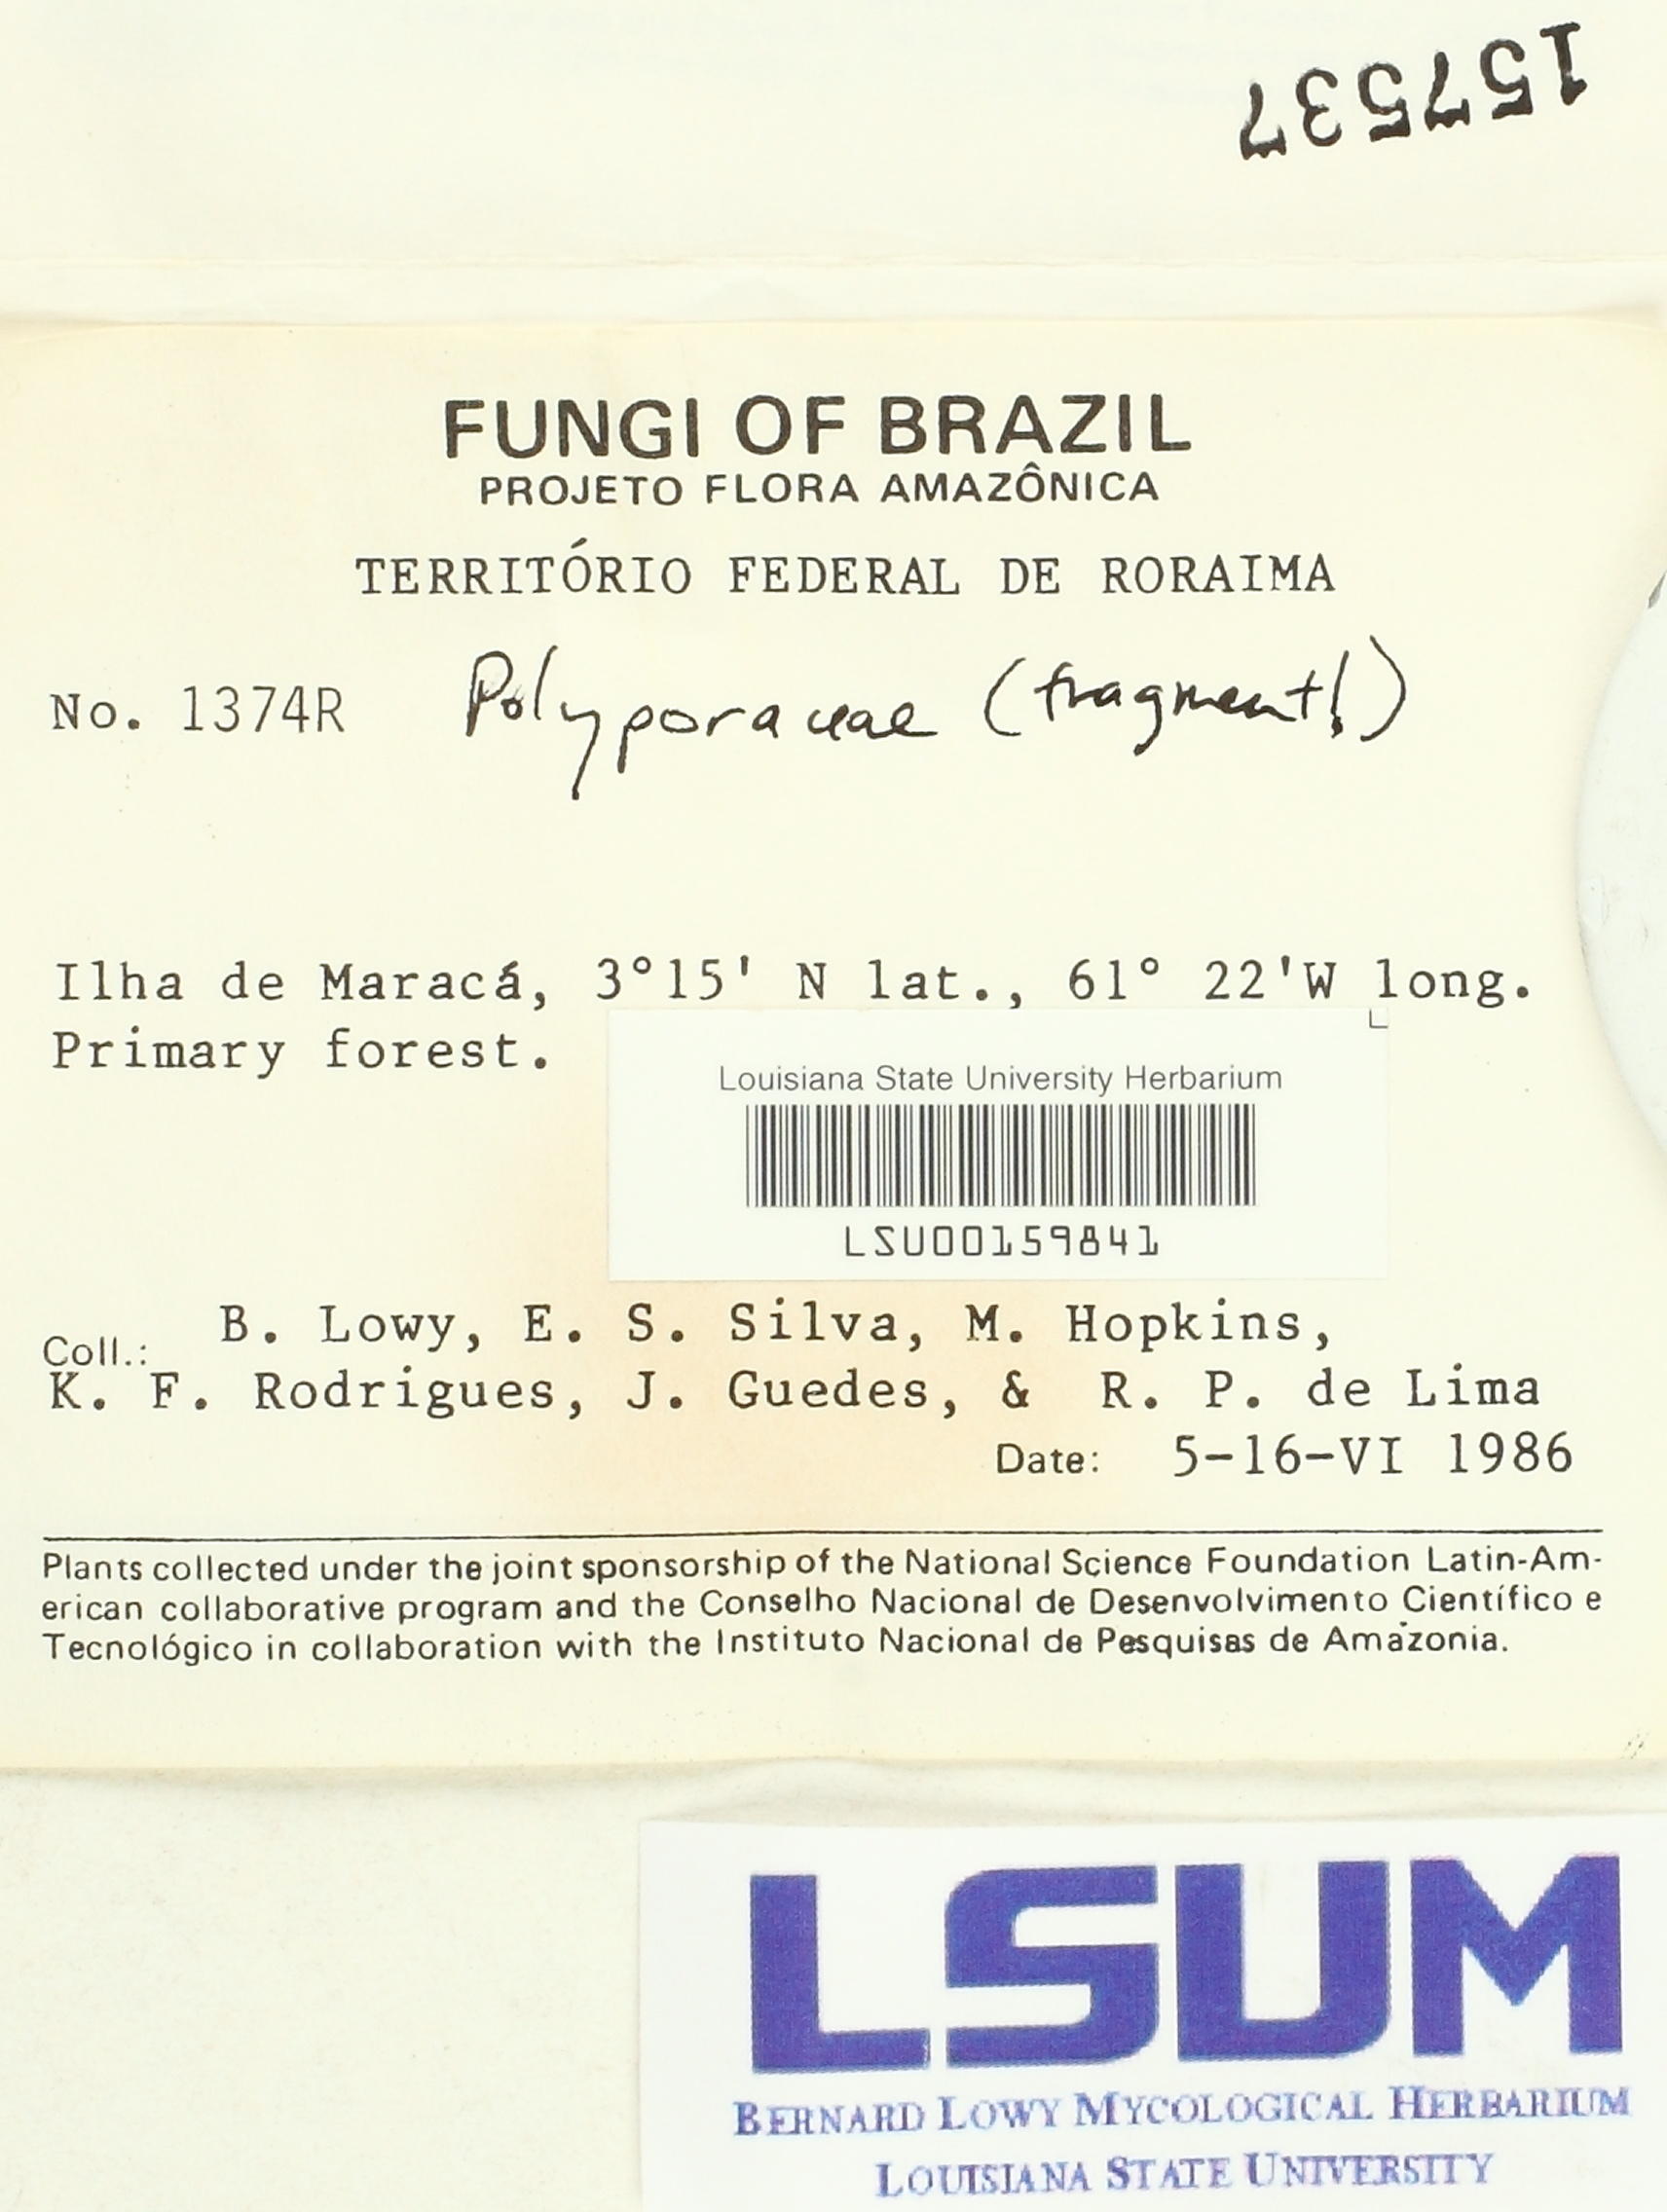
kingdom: Fungi
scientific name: Fungi
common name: Fungi
